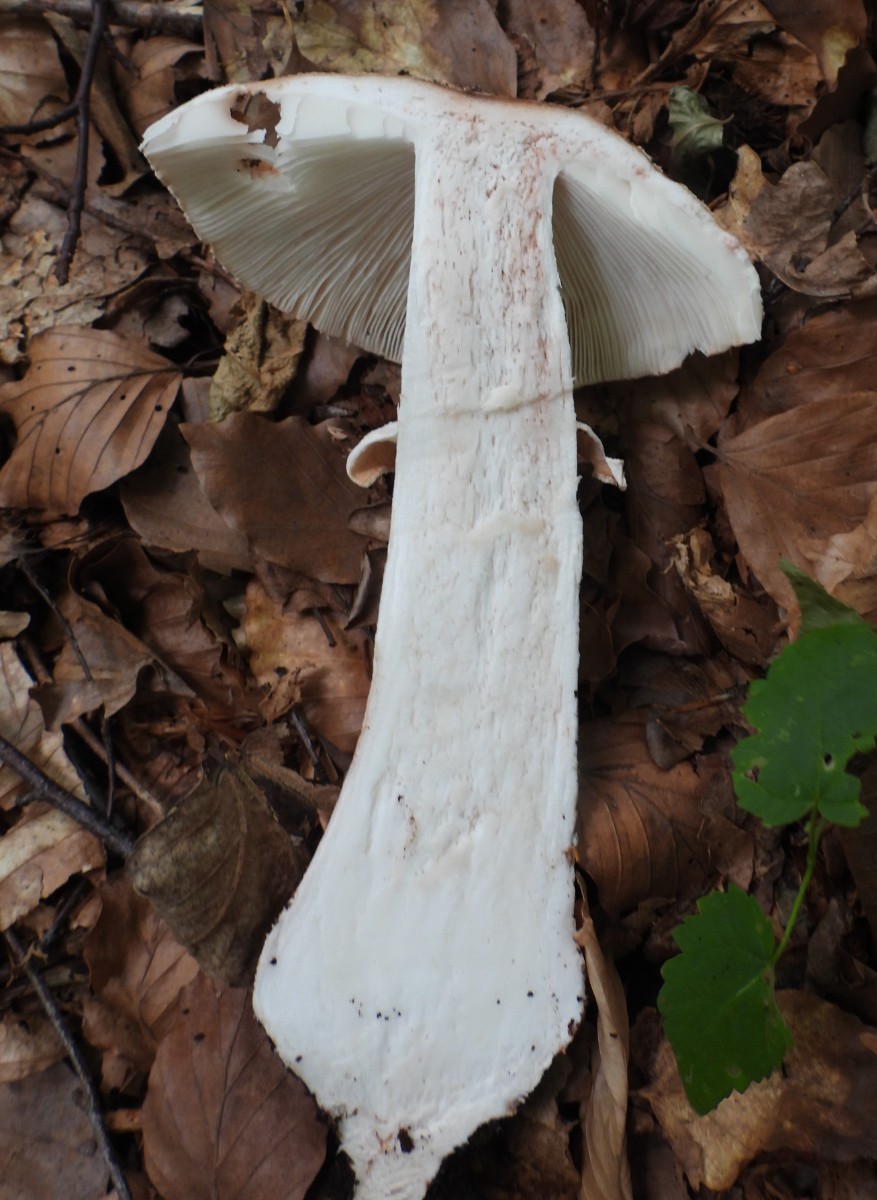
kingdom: Fungi
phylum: Basidiomycota
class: Agaricomycetes
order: Agaricales
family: Amanitaceae
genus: Amanita
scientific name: Amanita rubescens
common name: rødmende fluesvamp
